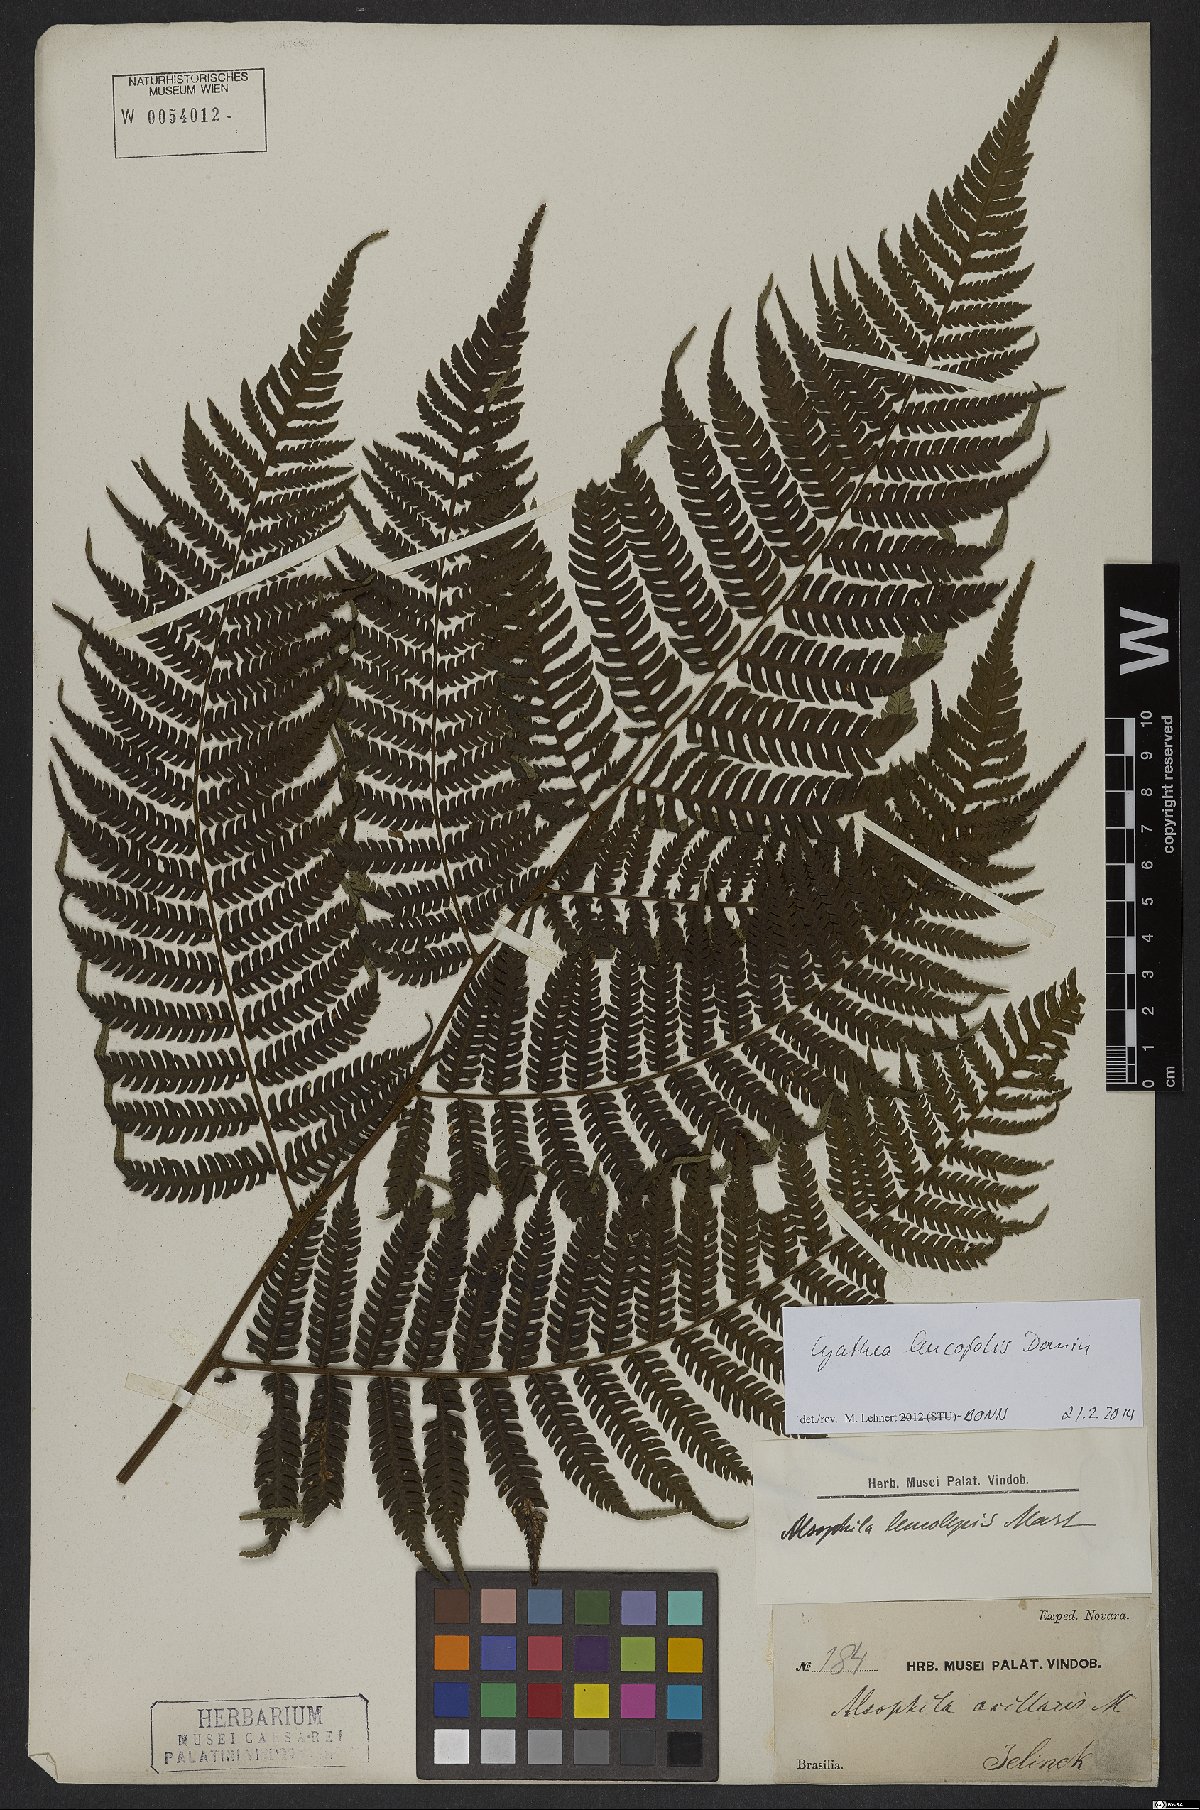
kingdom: Plantae
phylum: Tracheophyta
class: Polypodiopsida
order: Cyatheales
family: Cyatheaceae
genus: Cyathea
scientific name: Cyathea leucofolis
